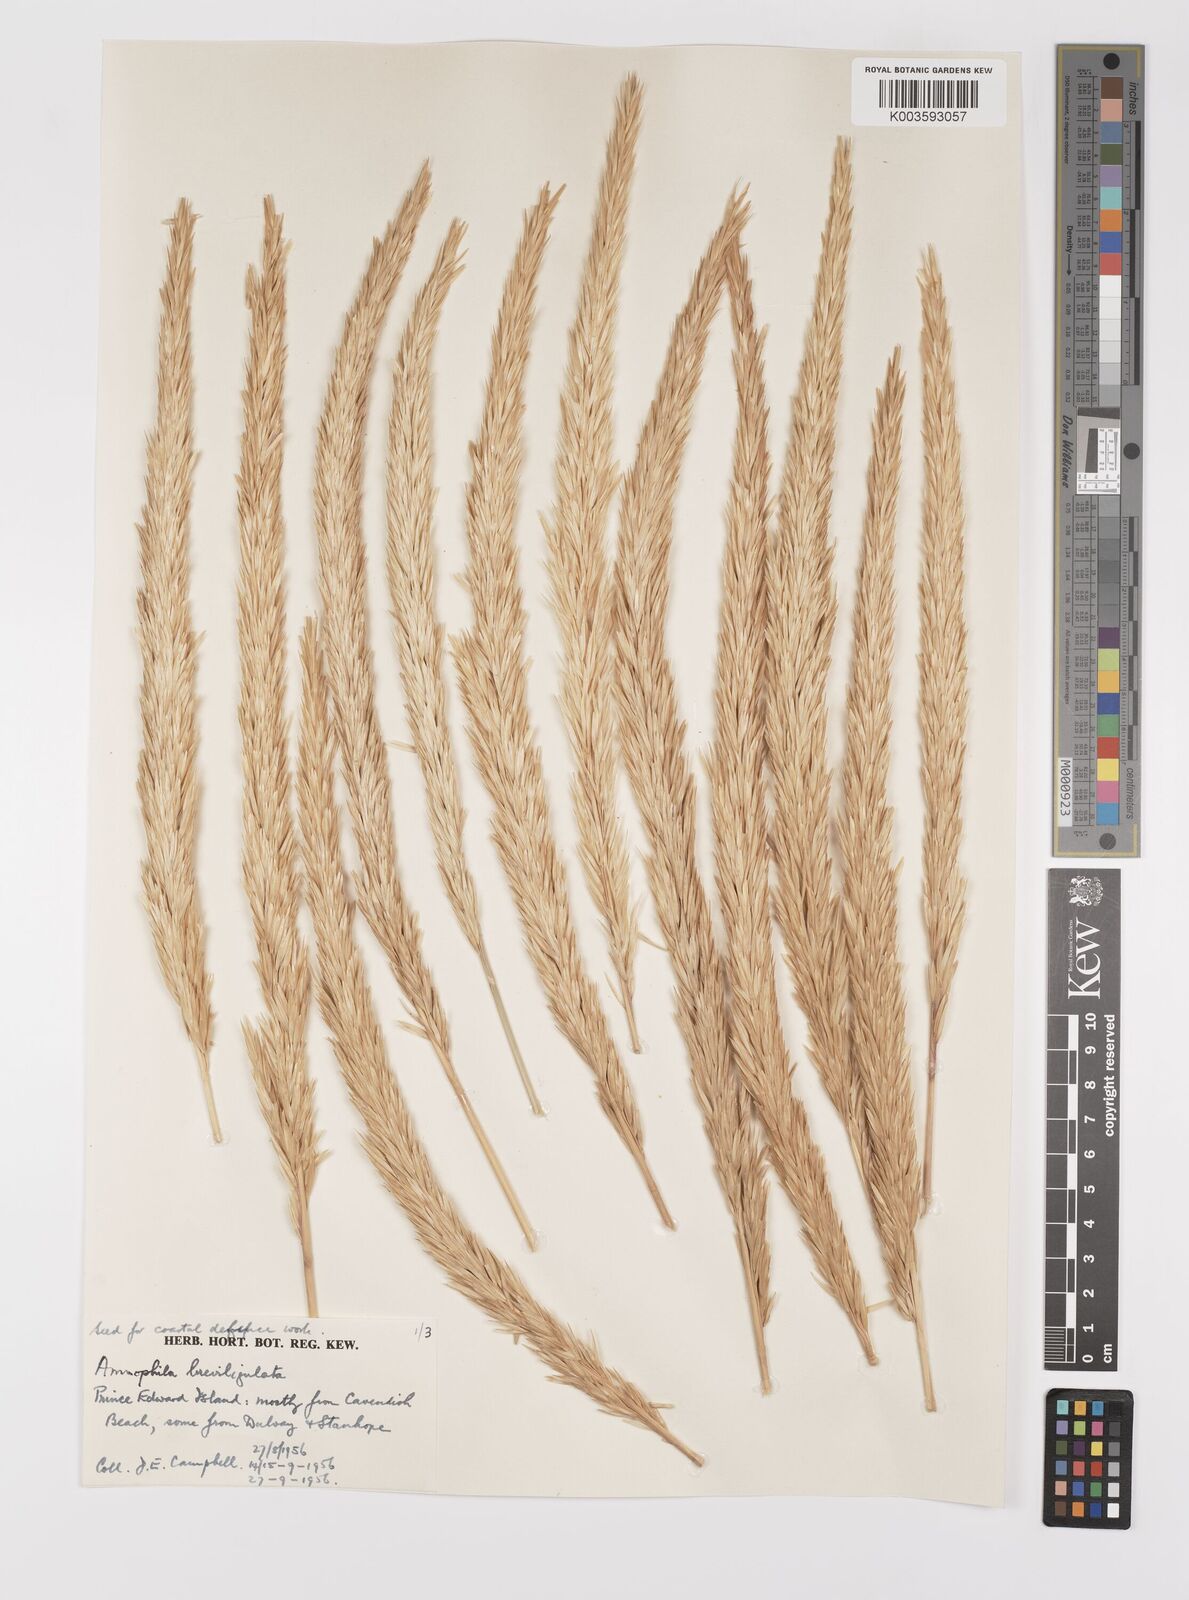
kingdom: Plantae
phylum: Tracheophyta
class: Liliopsida
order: Poales
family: Poaceae
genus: Calamagrostis
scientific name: Calamagrostis breviligulata
